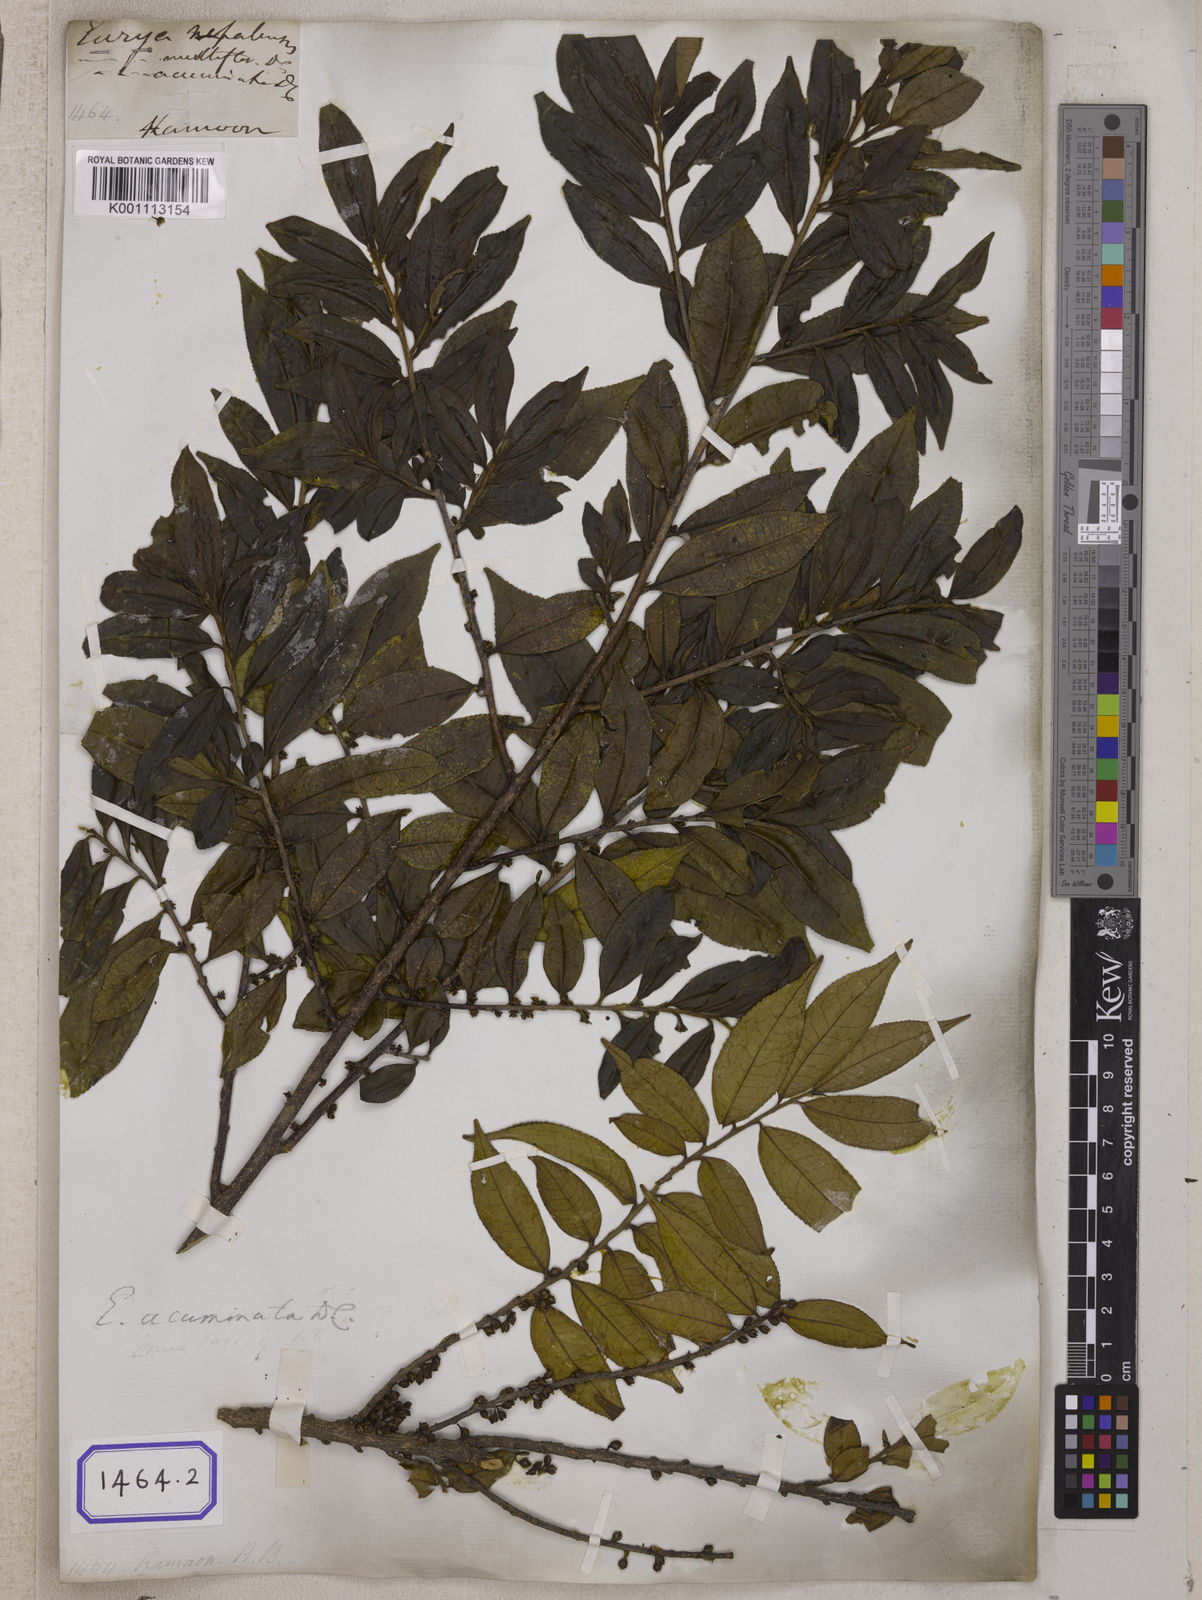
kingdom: Plantae
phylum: Tracheophyta
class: Magnoliopsida
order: Ericales
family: Pentaphylacaceae
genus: Eurya
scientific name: Eurya acuminata
